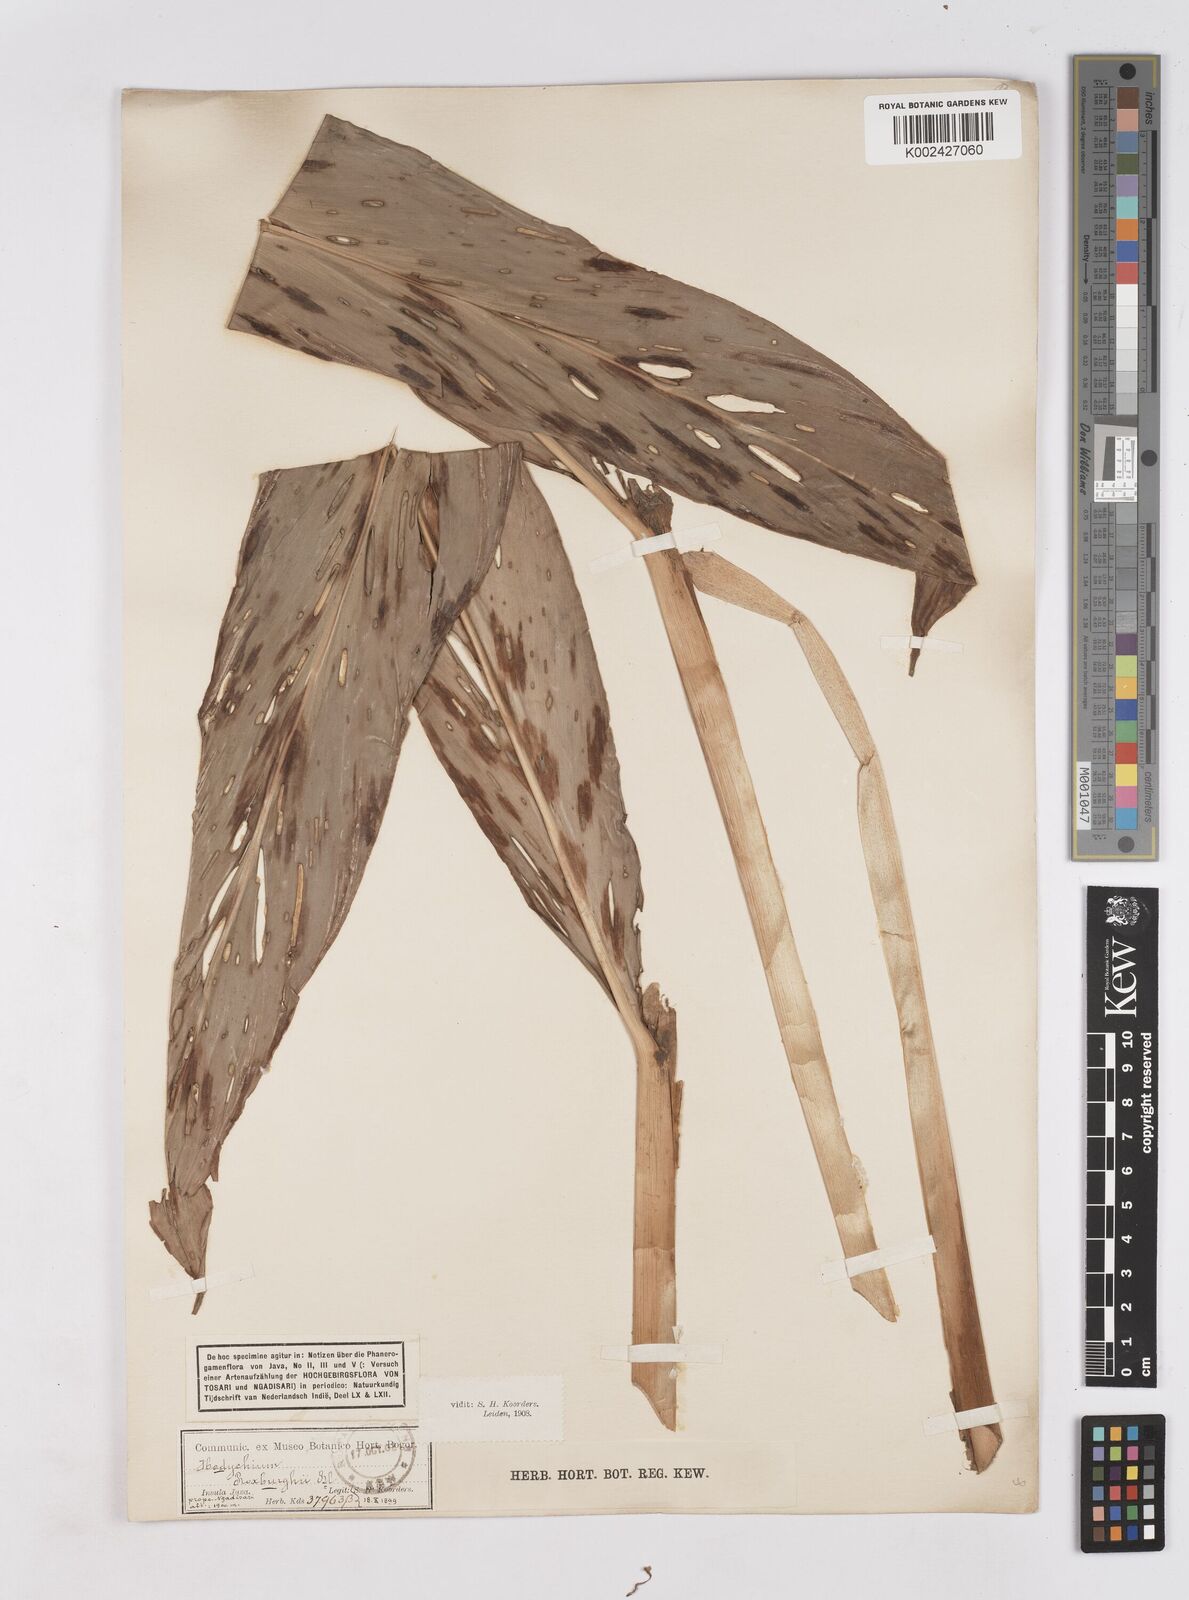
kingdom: Plantae
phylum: Tracheophyta
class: Liliopsida
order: Zingiberales
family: Zingiberaceae
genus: Hedychium
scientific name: Hedychium roxburghii
